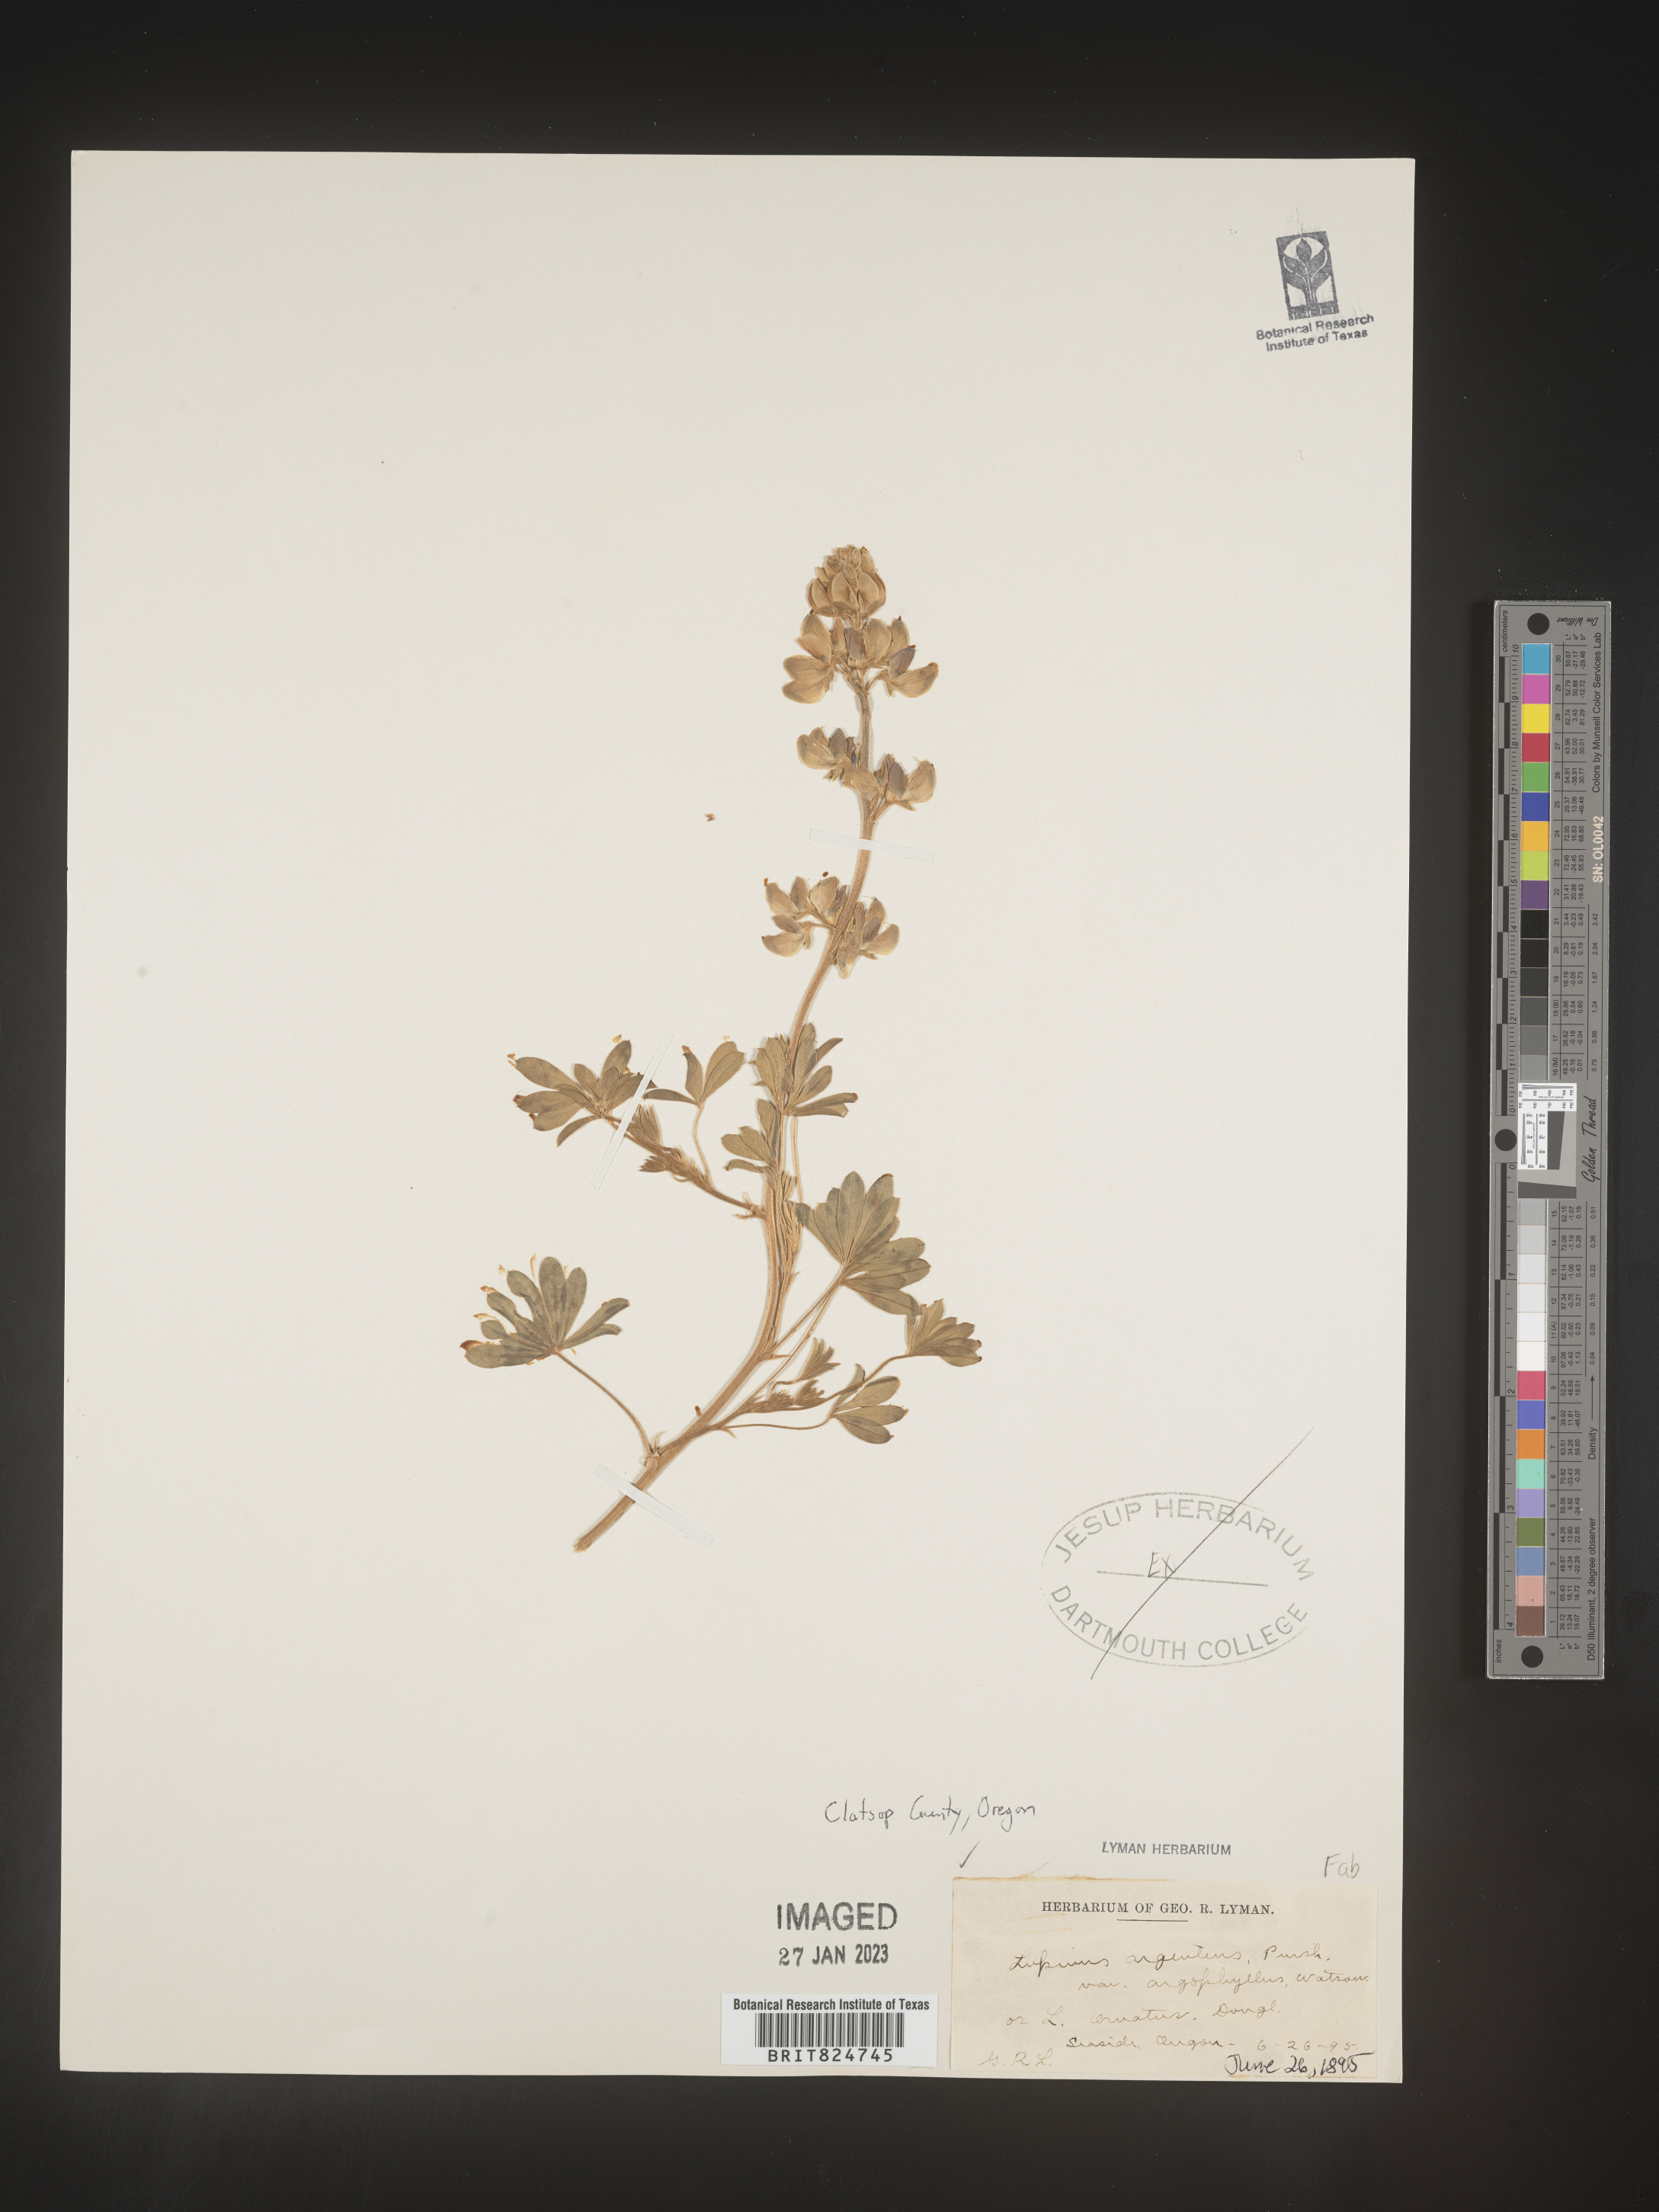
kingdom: Plantae
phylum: Tracheophyta
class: Magnoliopsida
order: Fabales
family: Fabaceae
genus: Lupinus
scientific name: Lupinus argenteus
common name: Silvery lupine
